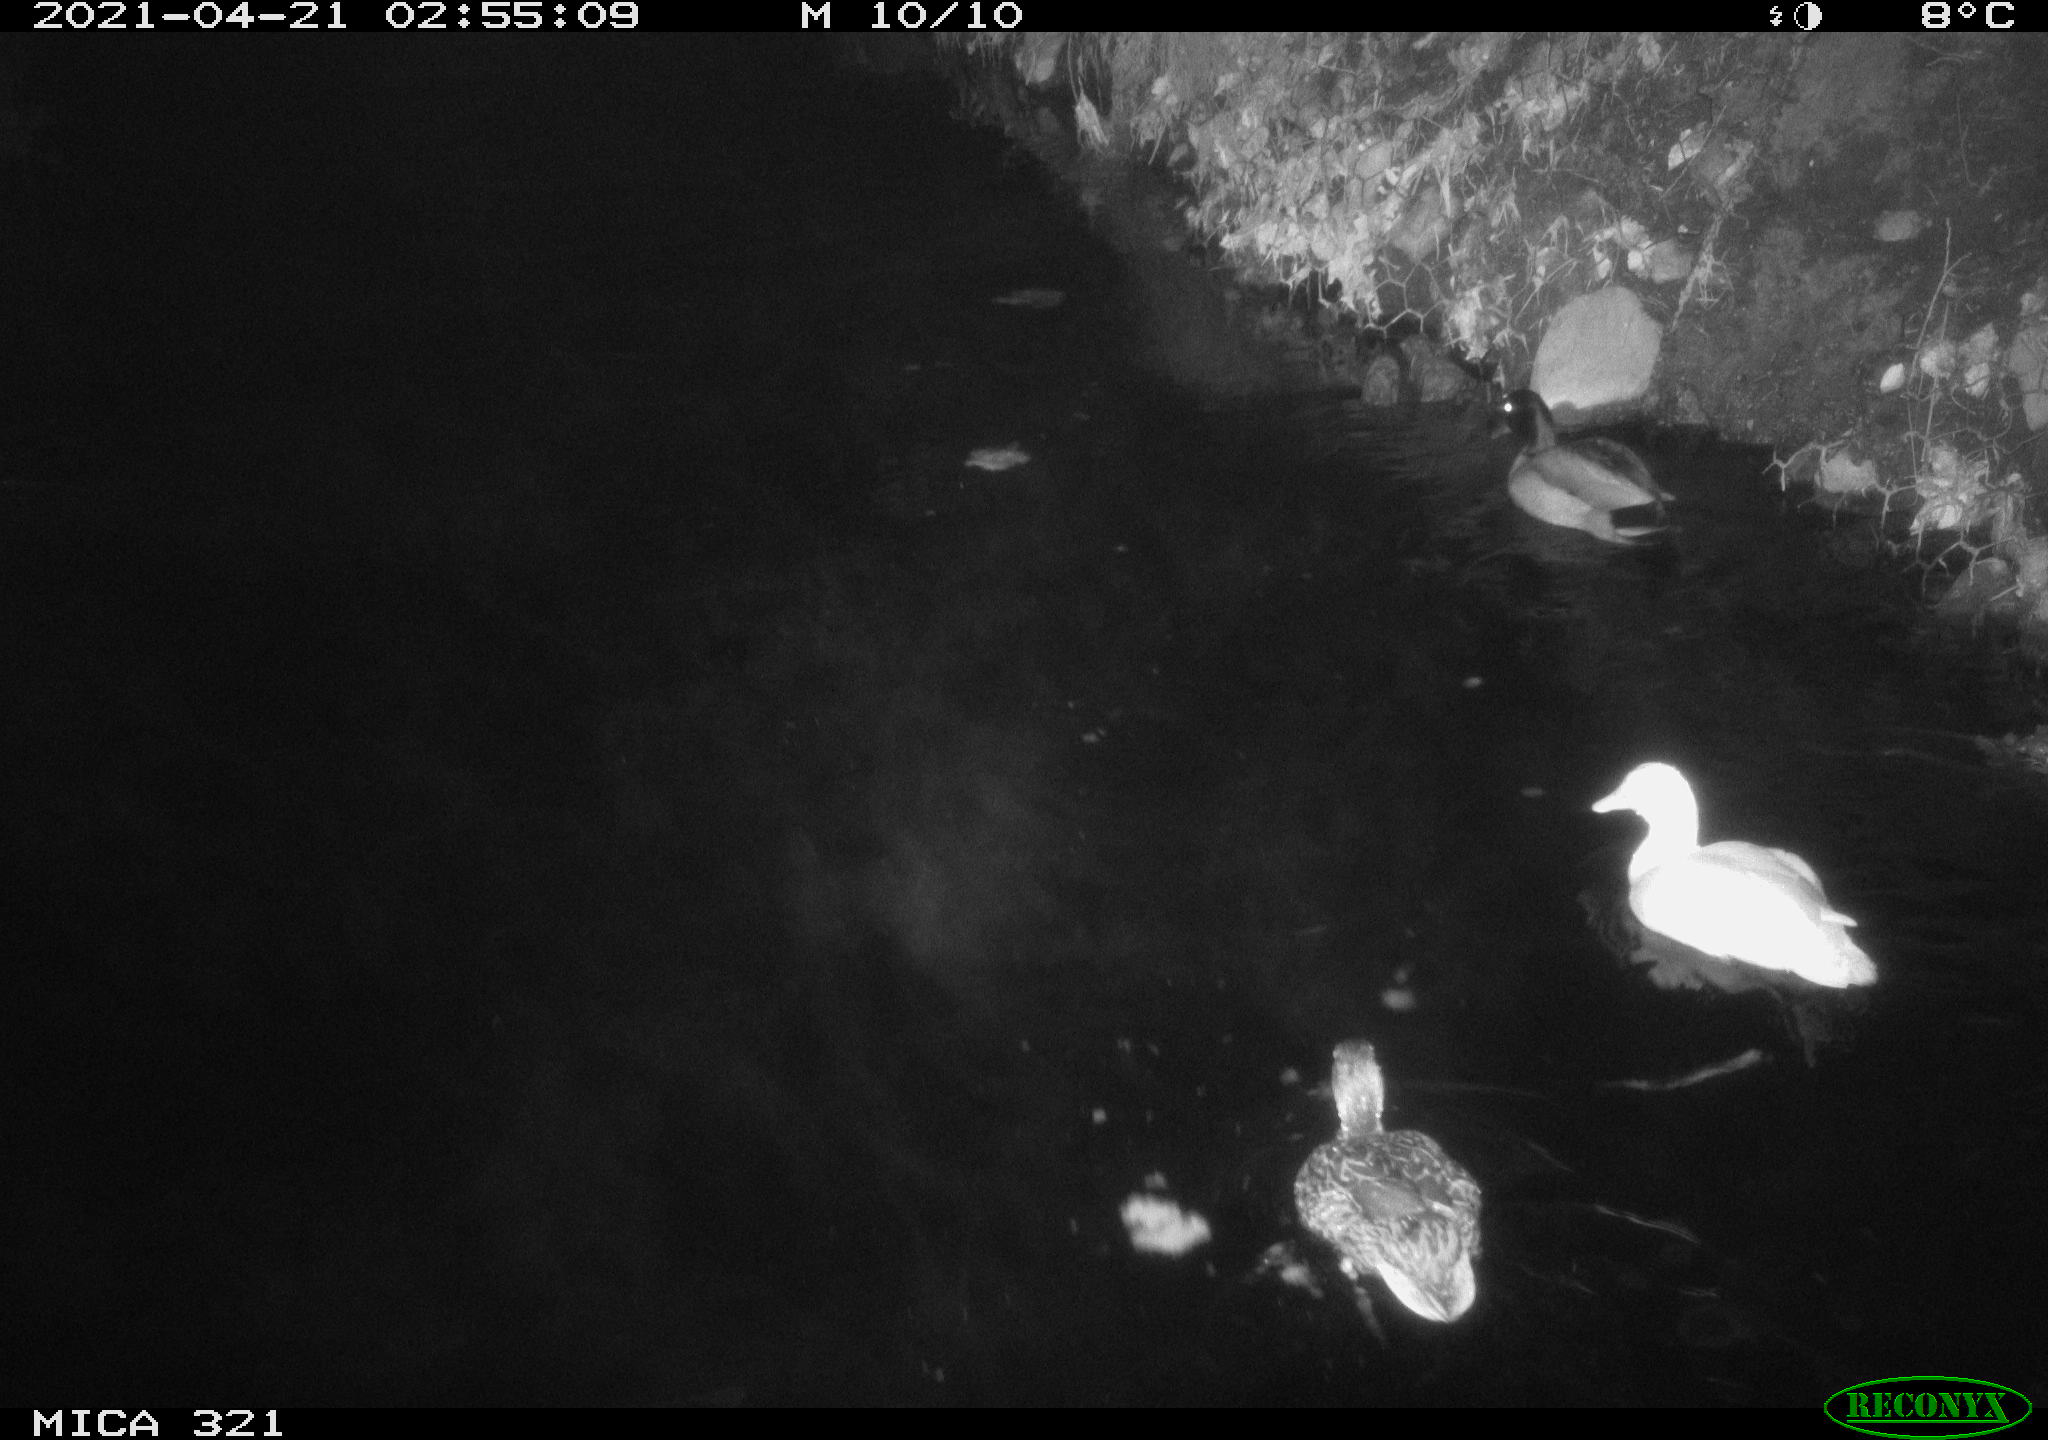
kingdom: Animalia
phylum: Chordata
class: Aves
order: Anseriformes
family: Anatidae
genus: Anas
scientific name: Anas
